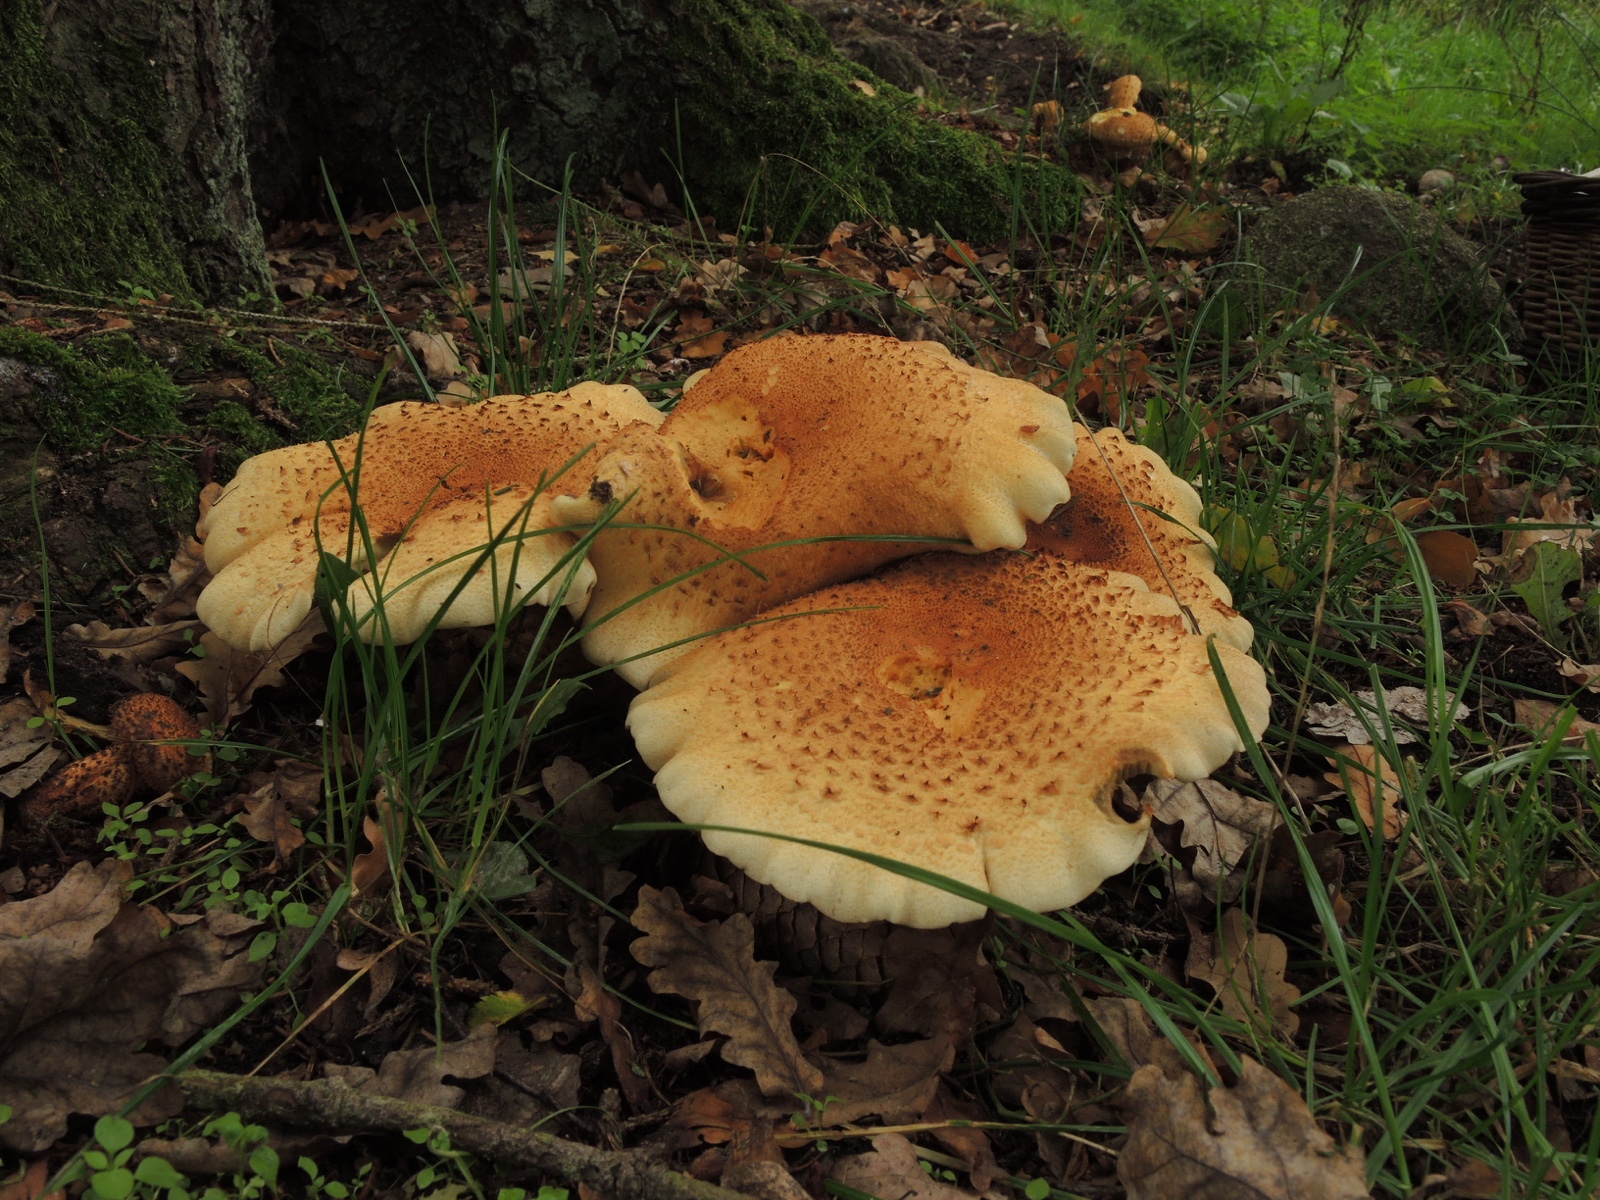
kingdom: Fungi
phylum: Basidiomycota
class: Agaricomycetes
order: Agaricales
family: Strophariaceae
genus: Pholiota
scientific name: Pholiota squarrosa
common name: krumskællet skælhat
